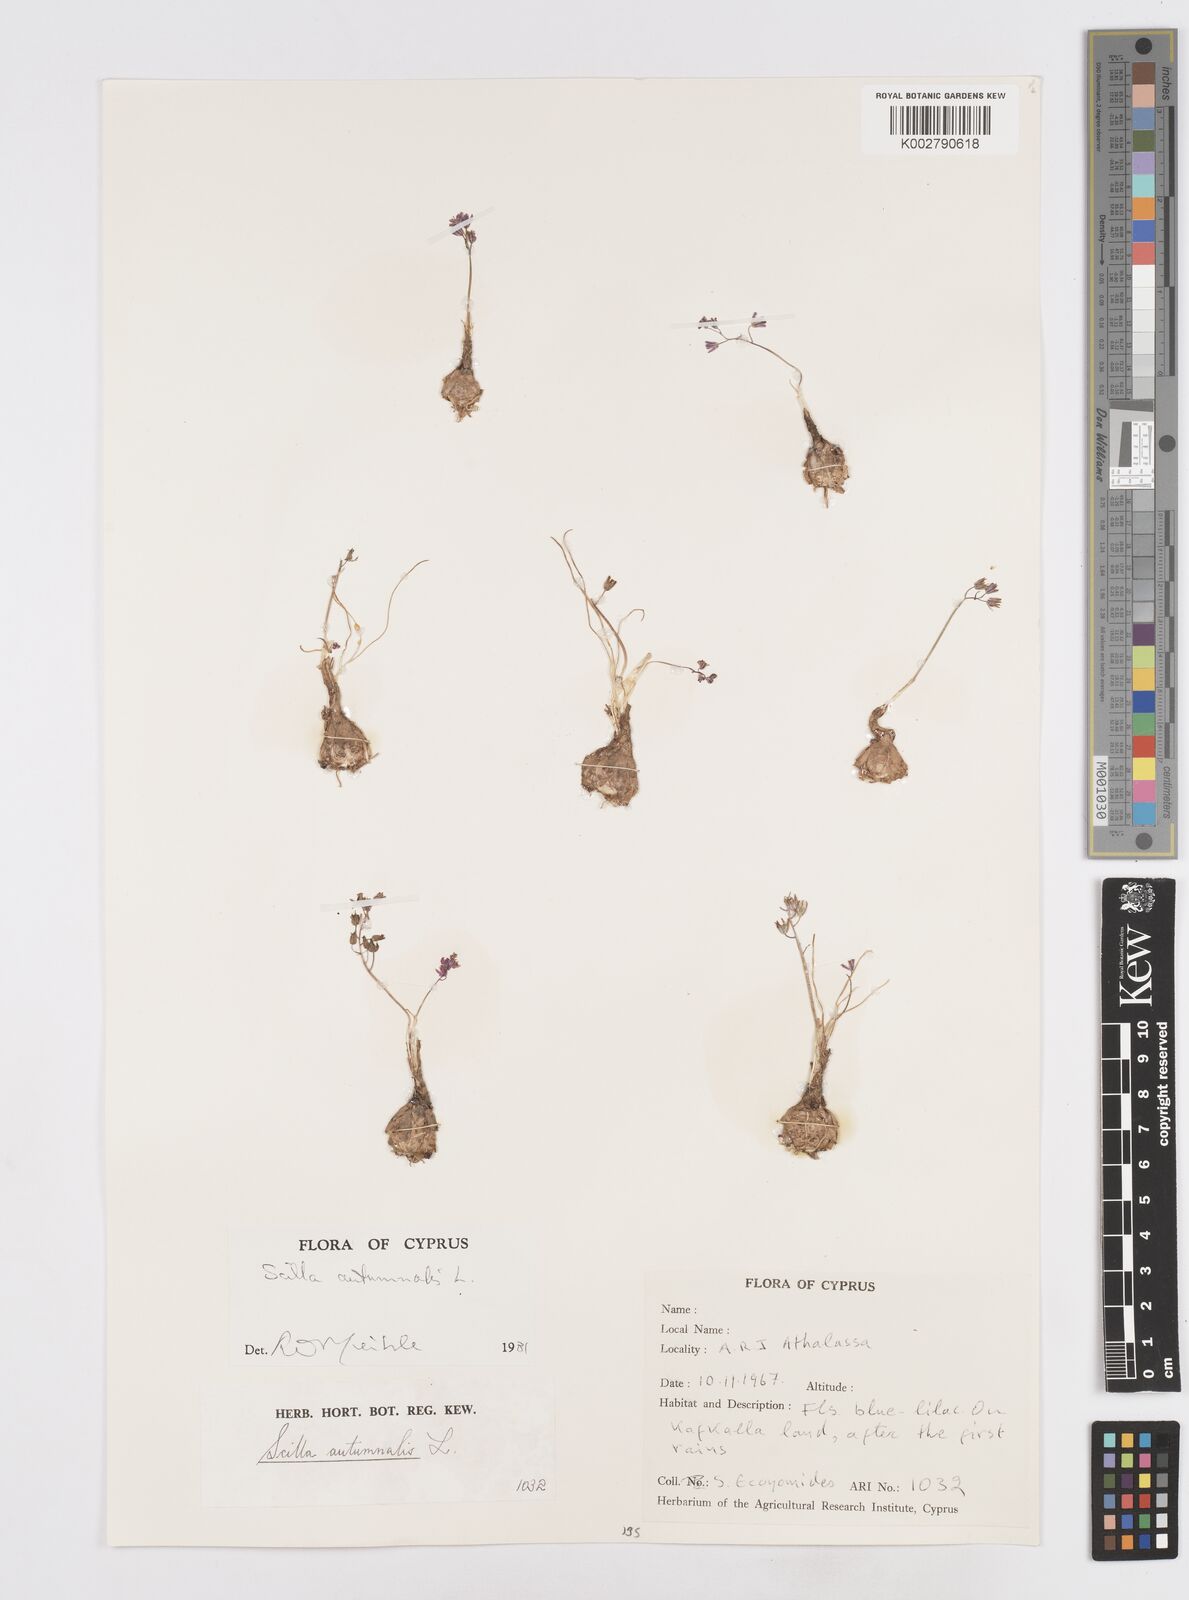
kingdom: Plantae
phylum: Tracheophyta
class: Liliopsida
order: Asparagales
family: Asparagaceae
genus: Prospero
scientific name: Prospero autumnale
